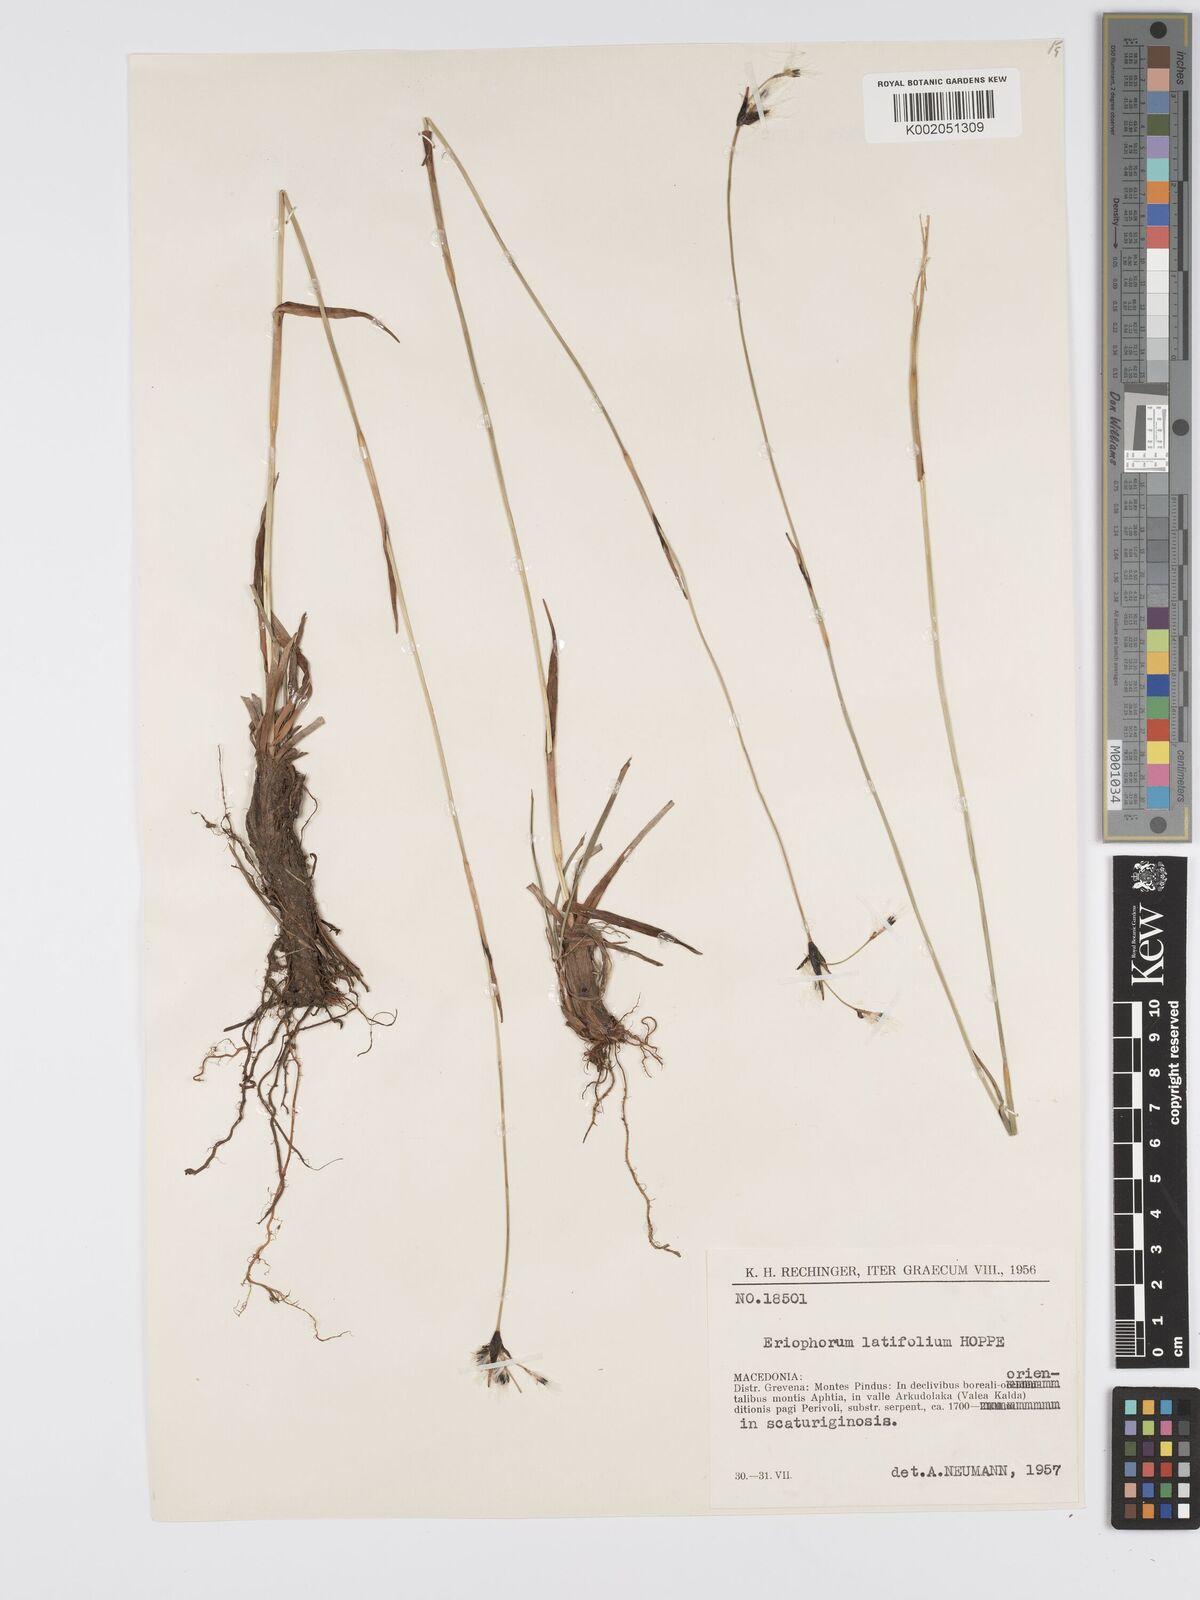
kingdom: Plantae
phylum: Tracheophyta
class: Liliopsida
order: Poales
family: Cyperaceae
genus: Eriophorum
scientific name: Eriophorum latifolium
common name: Broad-leaved cottongrass
